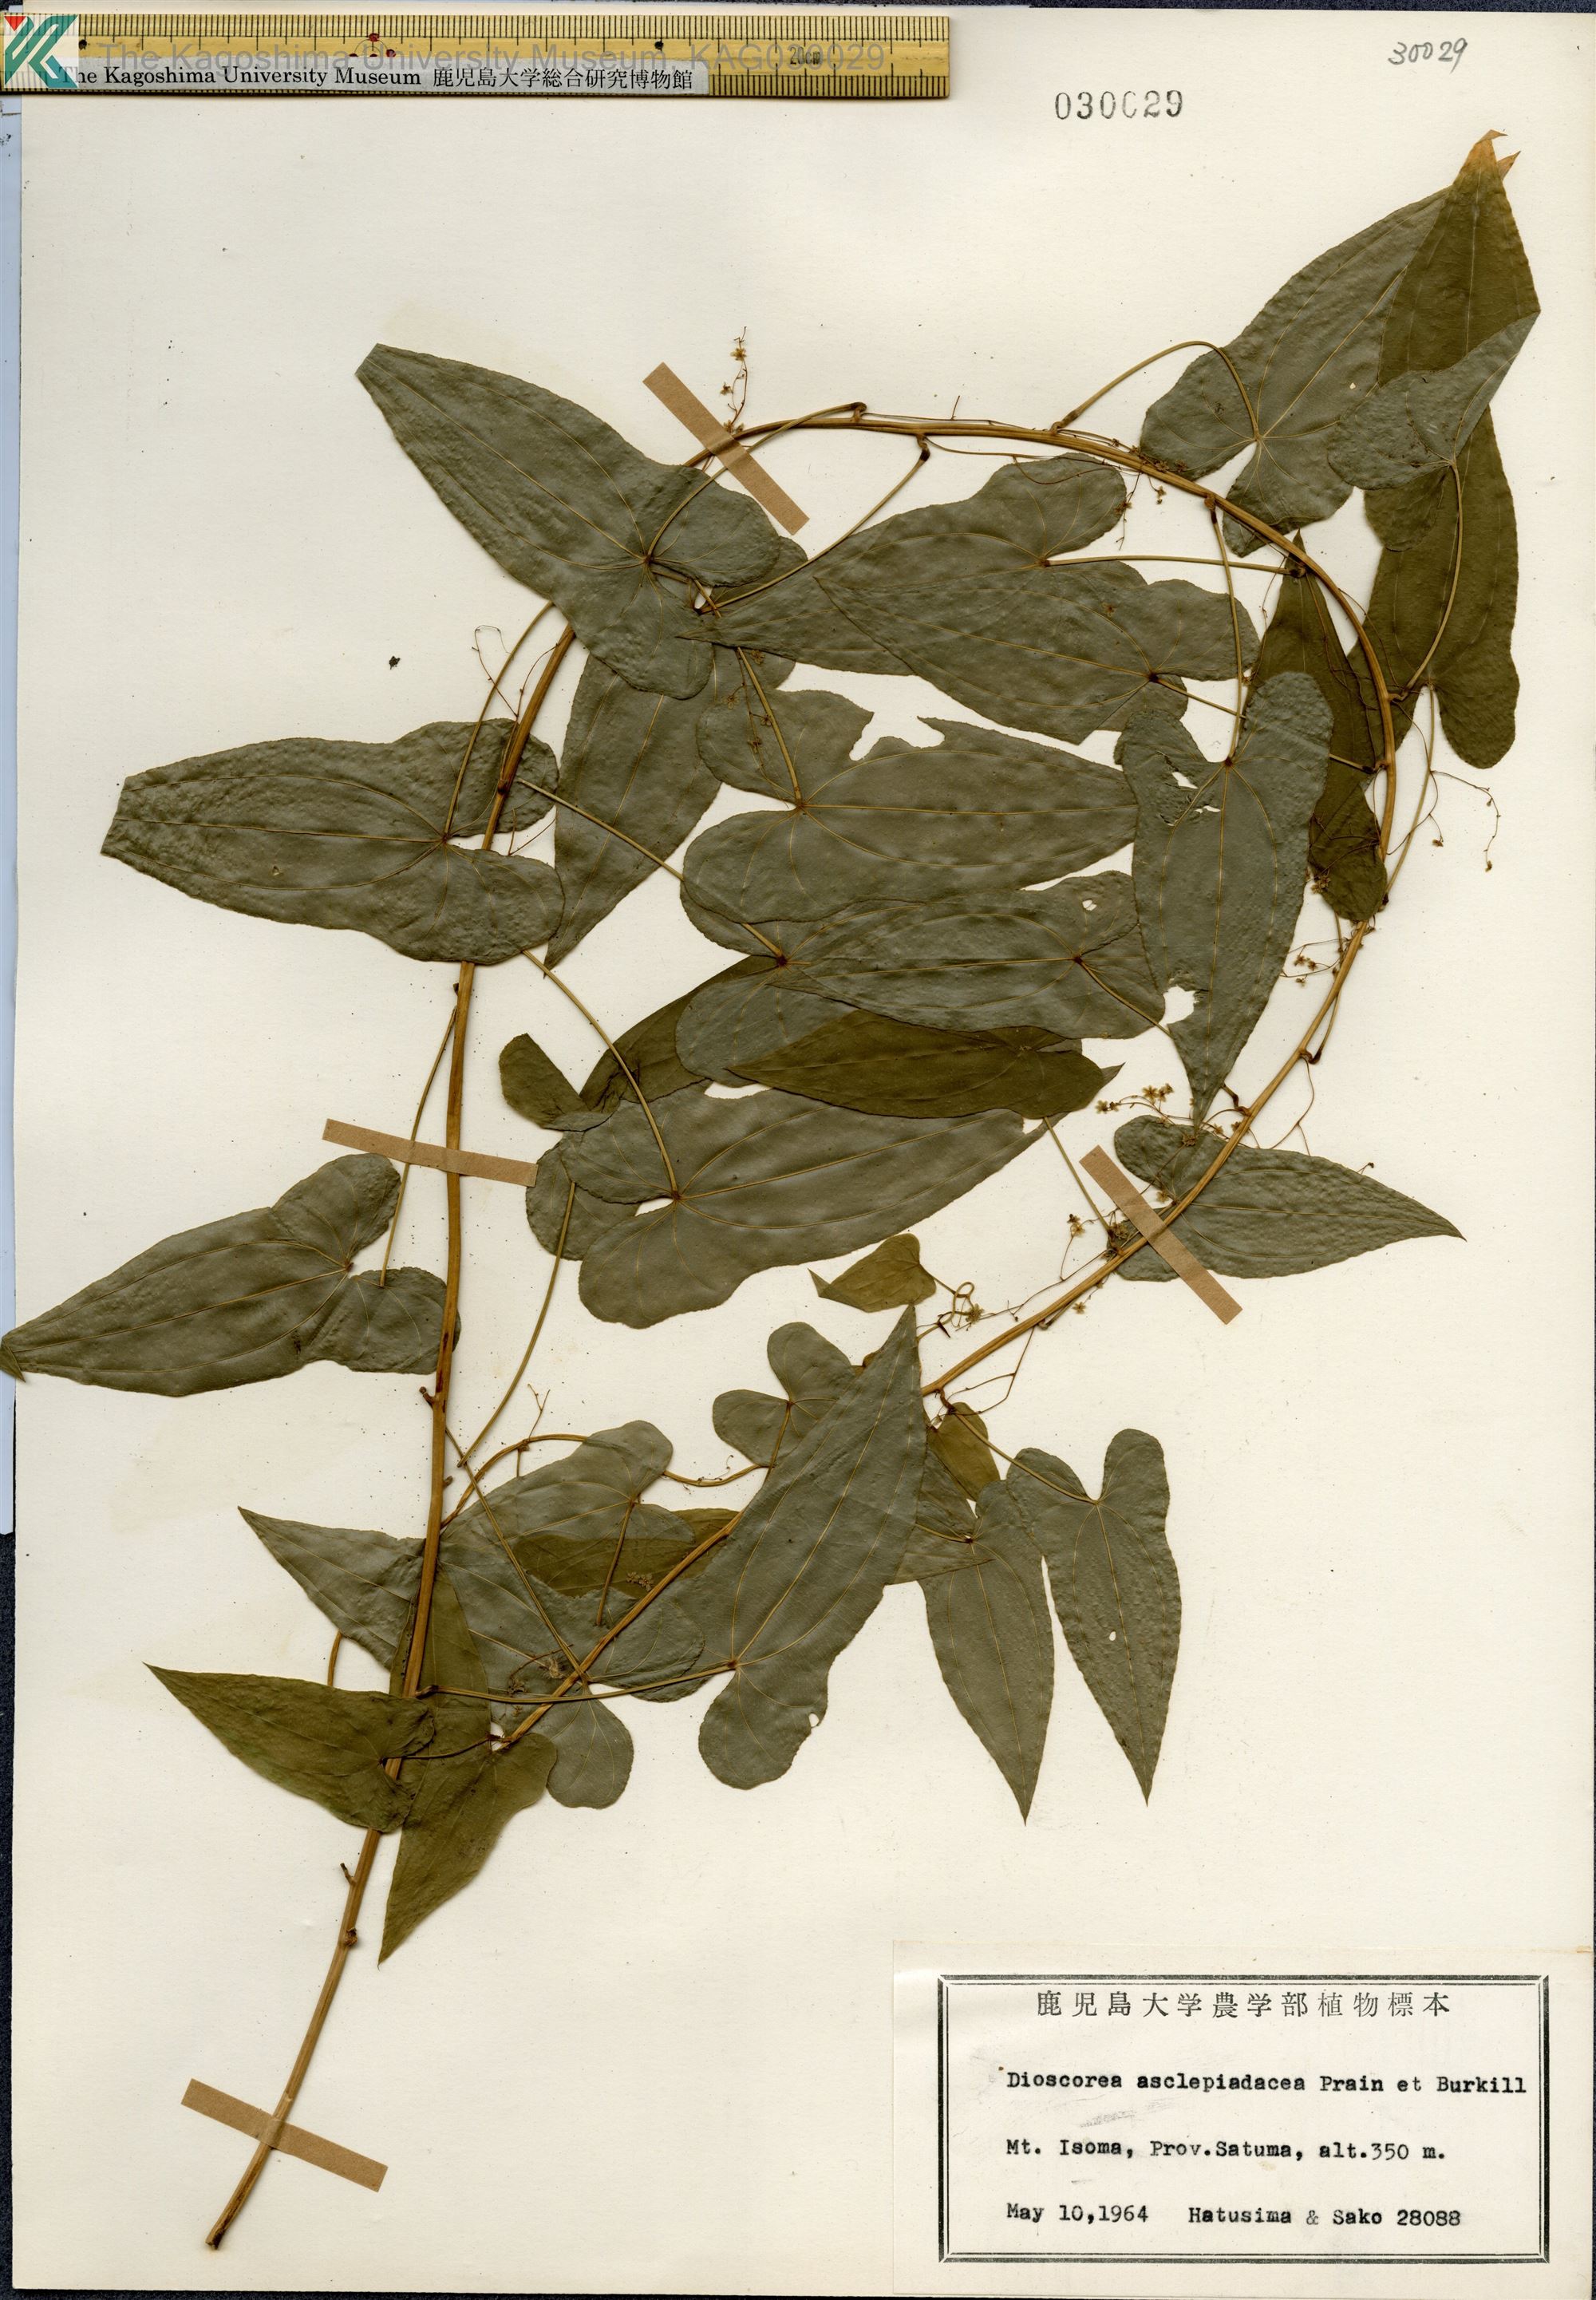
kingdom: Plantae
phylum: Tracheophyta
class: Liliopsida
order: Dioscoreales
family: Dioscoreaceae
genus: Dioscorea
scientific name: Dioscorea asclepiadea
